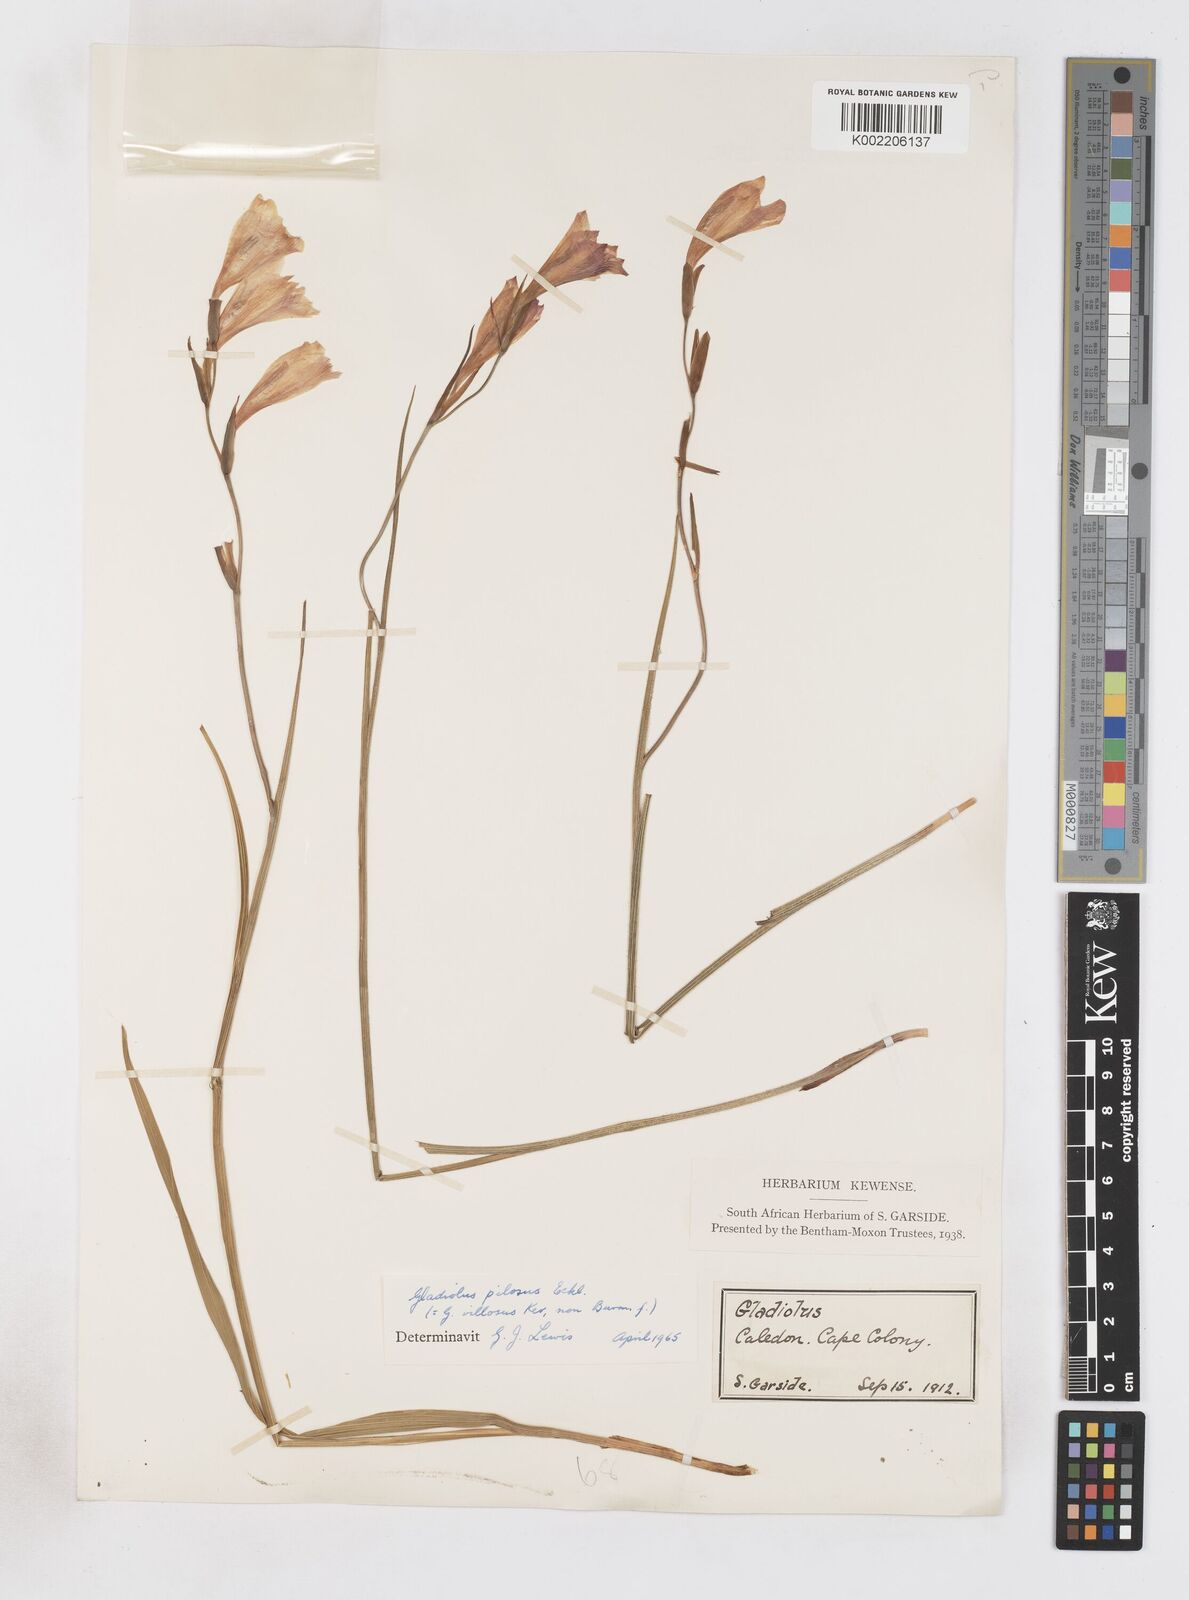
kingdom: Plantae
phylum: Tracheophyta
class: Liliopsida
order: Asparagales
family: Iridaceae
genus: Gladiolus
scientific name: Gladiolus hirsutus
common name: Small pink afrikaner
